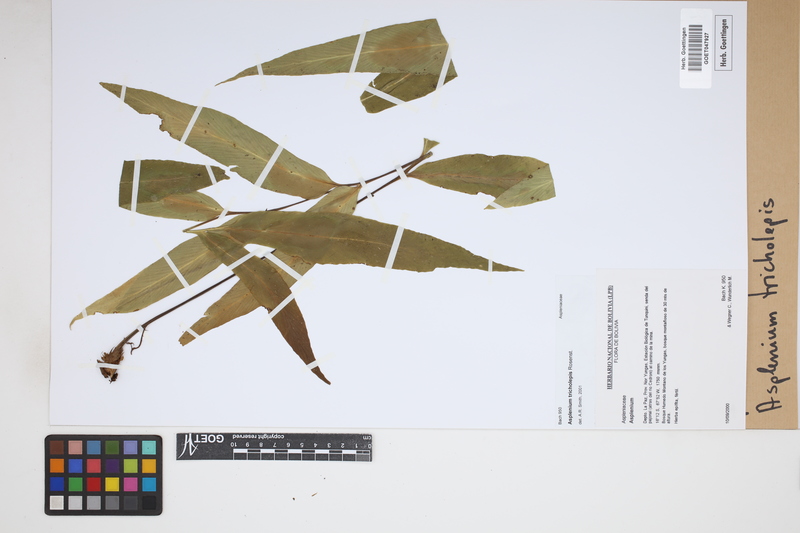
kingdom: Plantae
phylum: Tracheophyta
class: Polypodiopsida
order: Polypodiales
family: Aspleniaceae
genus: Asplenium
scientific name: Asplenium tricholepis
